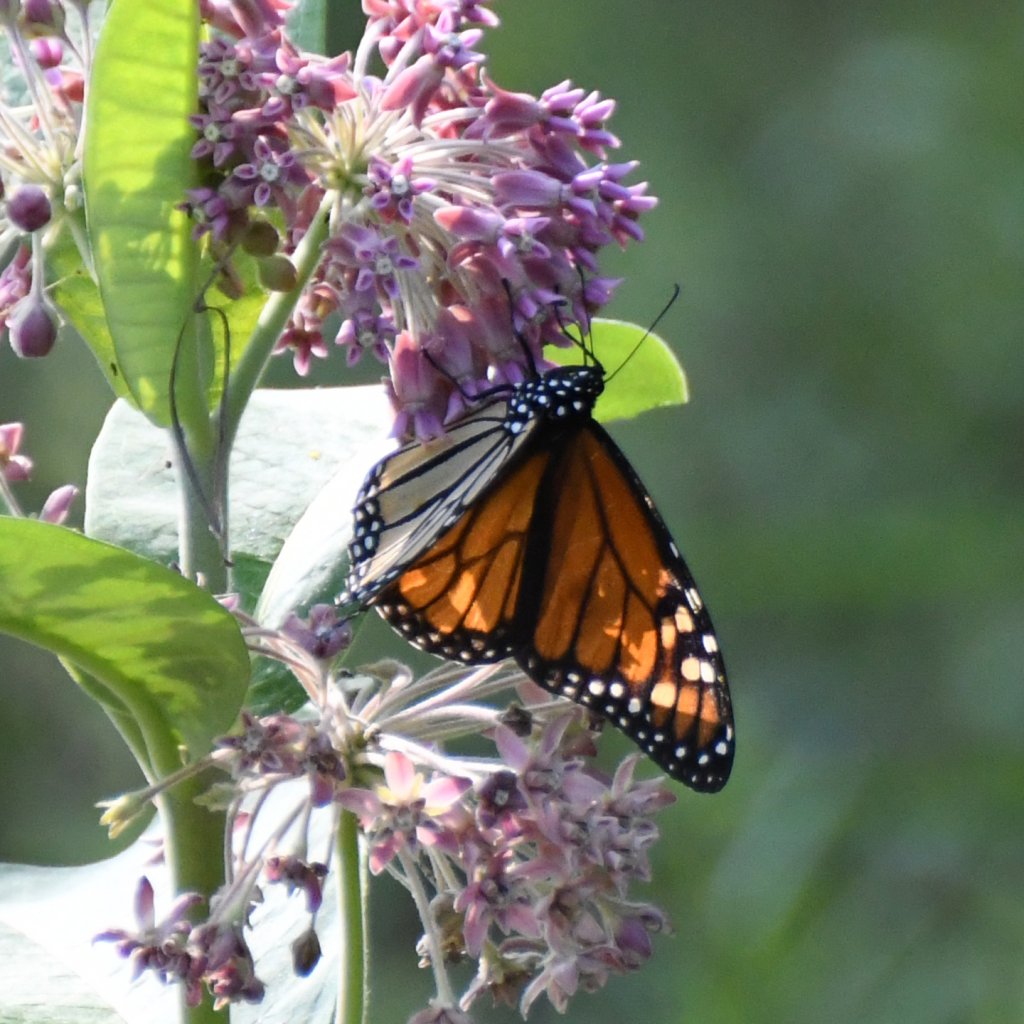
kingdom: Animalia
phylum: Arthropoda
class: Insecta
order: Lepidoptera
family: Nymphalidae
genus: Danaus
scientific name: Danaus plexippus
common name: Monarch
